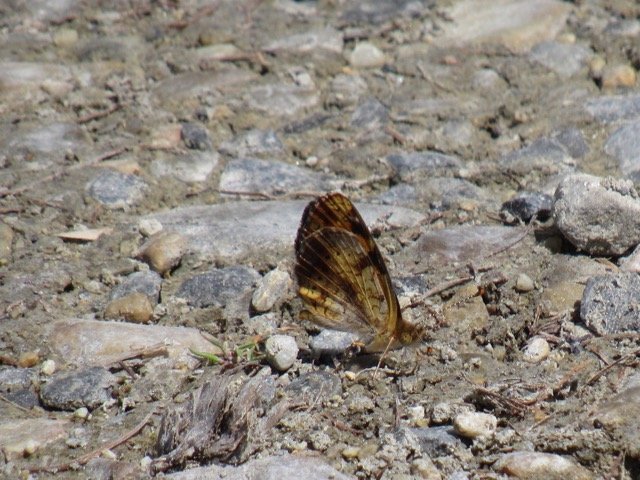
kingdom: Animalia
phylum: Arthropoda
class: Insecta
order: Lepidoptera
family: Nymphalidae
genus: Phyciodes
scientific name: Phyciodes tharos
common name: Pearl Crescent
